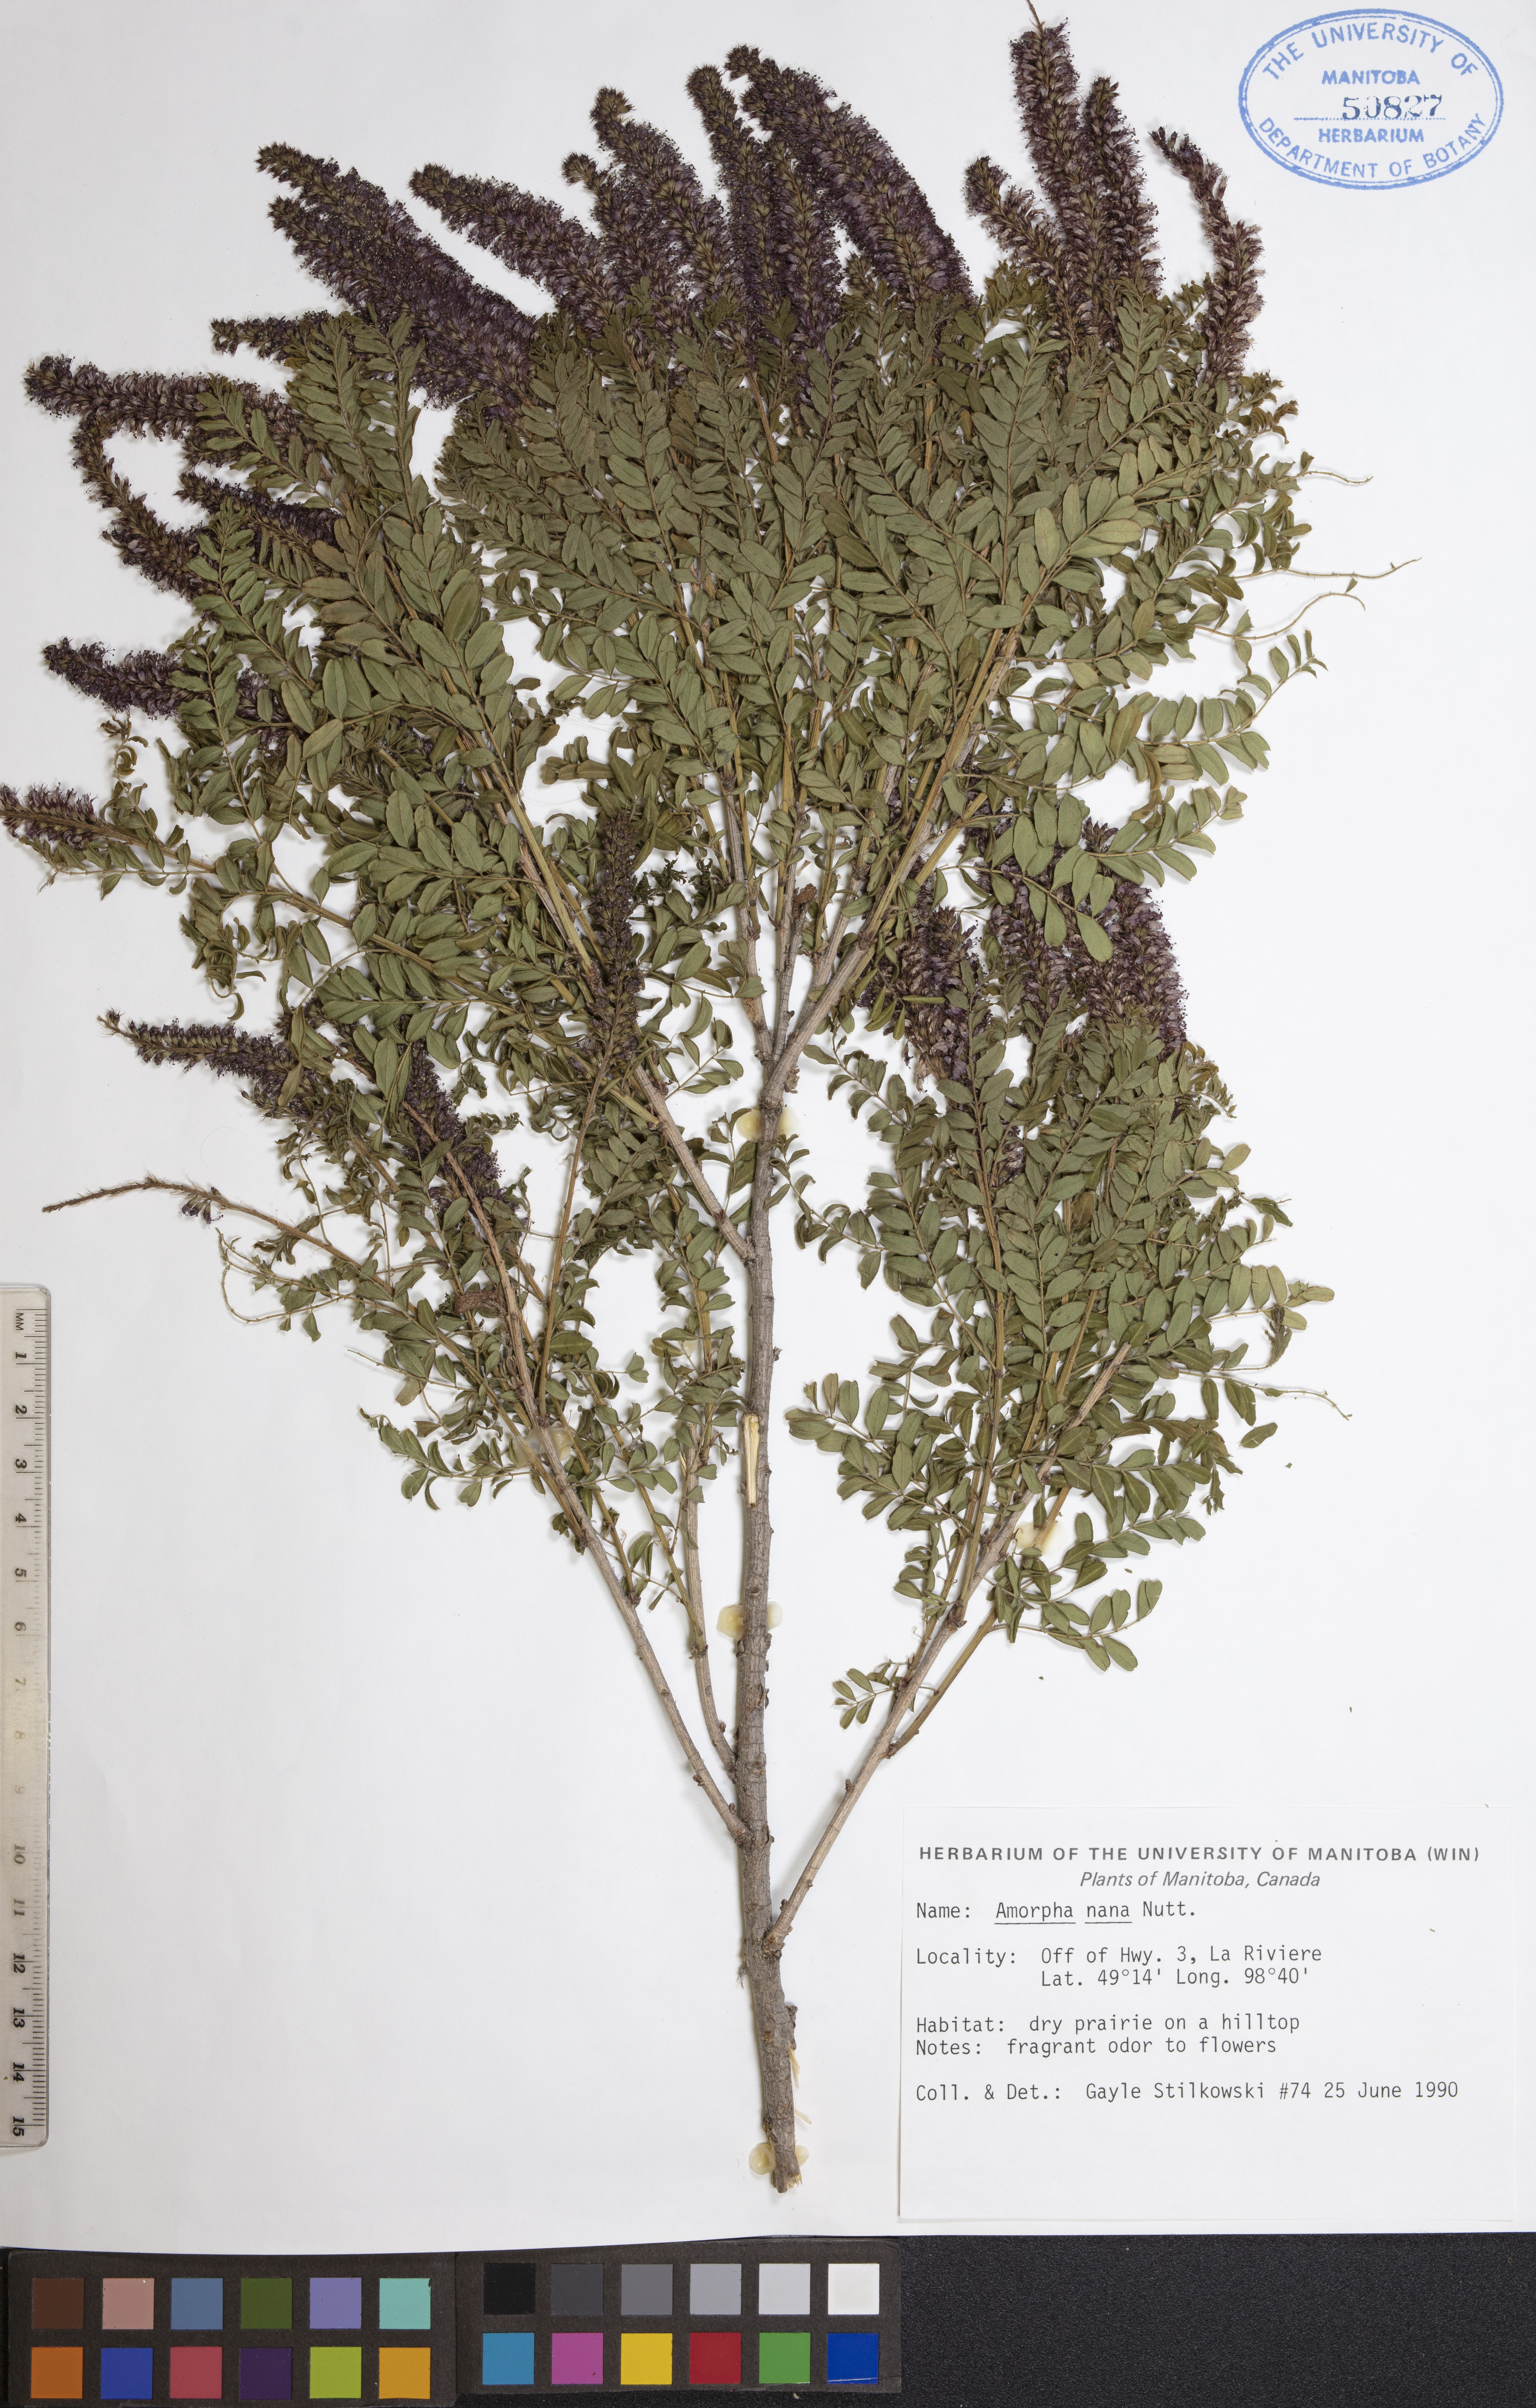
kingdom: Plantae
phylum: Tracheophyta
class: Magnoliopsida
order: Fabales
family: Fabaceae
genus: Amorpha
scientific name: Amorpha nana
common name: Fragrant false indigo
